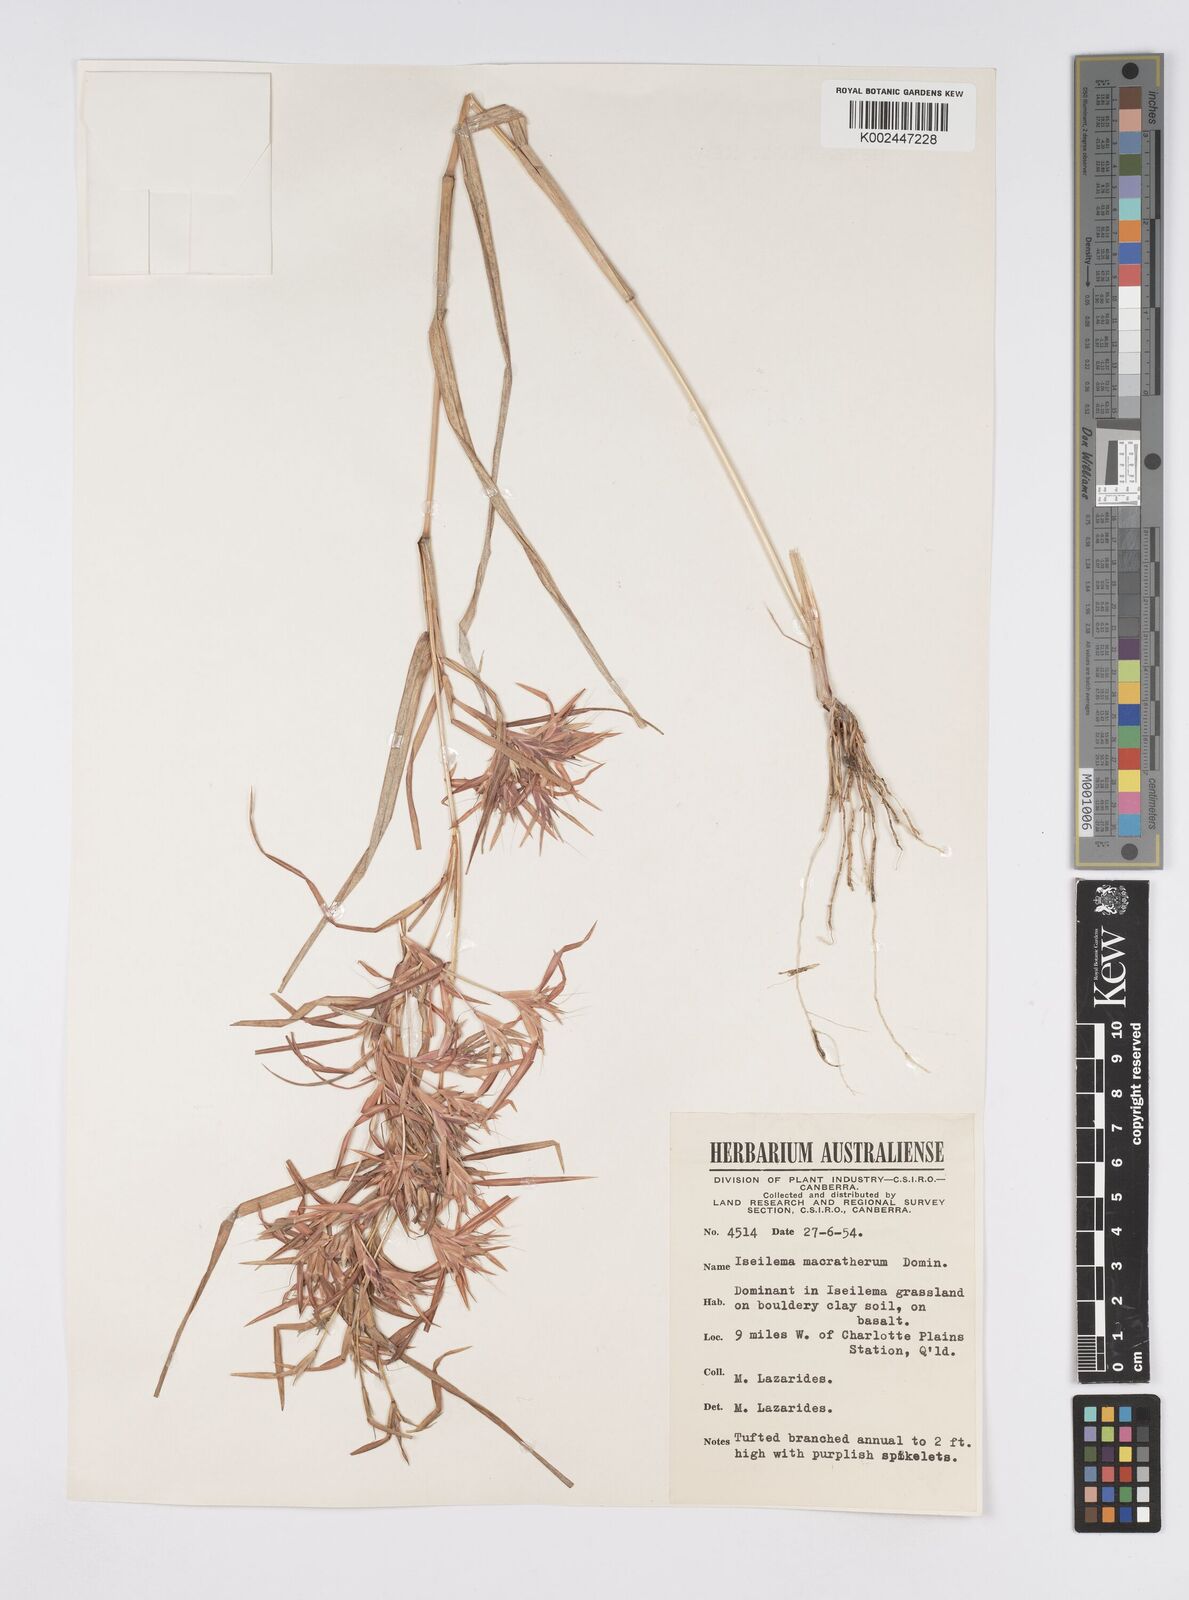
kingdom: Plantae
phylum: Tracheophyta
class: Liliopsida
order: Poales
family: Poaceae
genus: Iseilema
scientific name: Iseilema macratherum
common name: Bull flinders grass
